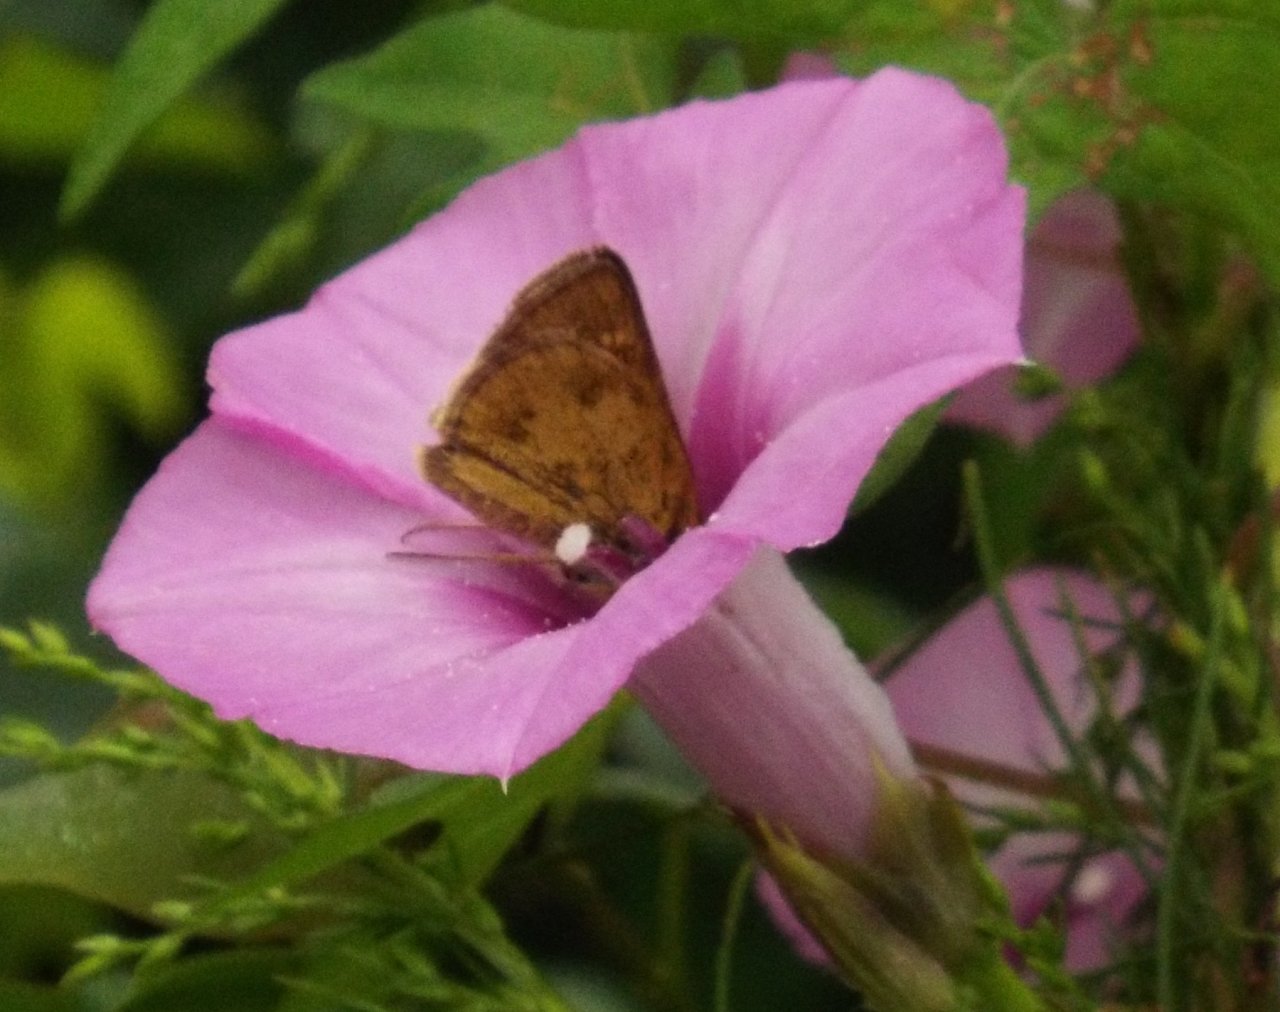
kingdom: Animalia
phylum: Arthropoda
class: Insecta
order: Lepidoptera
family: Hesperiidae
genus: Polites
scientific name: Polites vibex
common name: Whirlabout
